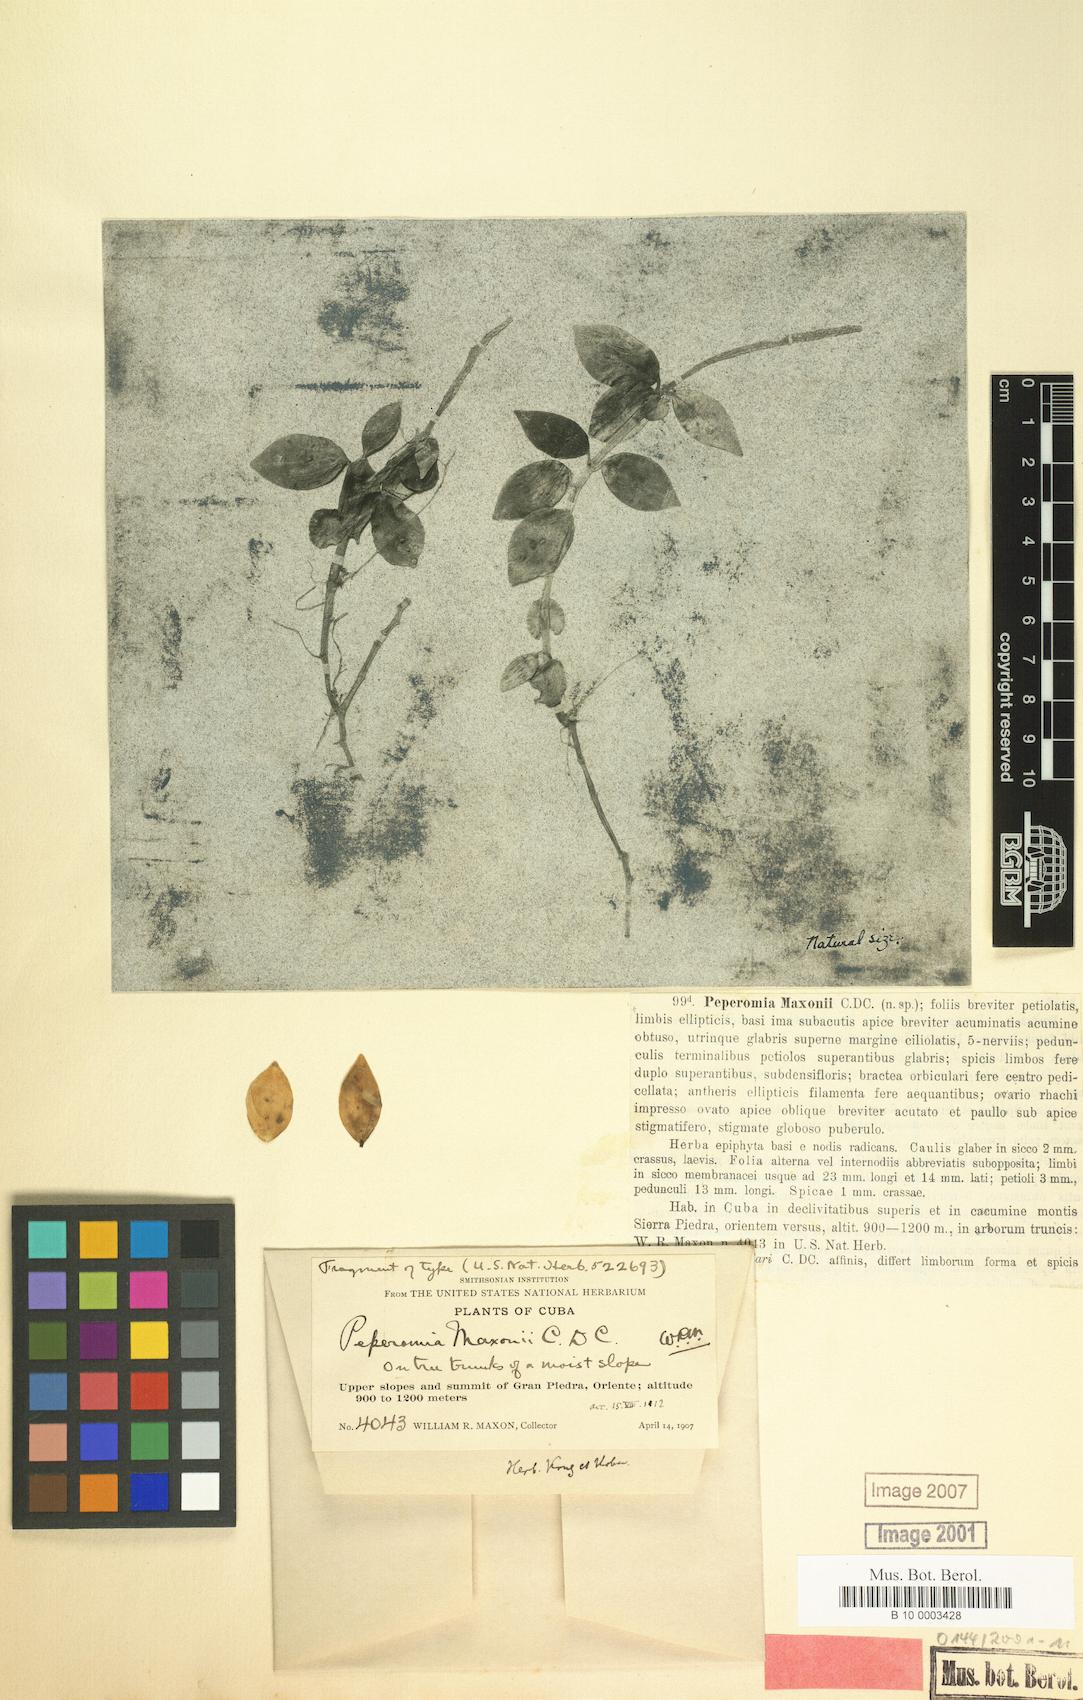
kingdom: Plantae
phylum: Tracheophyta
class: Magnoliopsida
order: Piperales
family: Piperaceae
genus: Peperomia
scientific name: Peperomia maxonii
